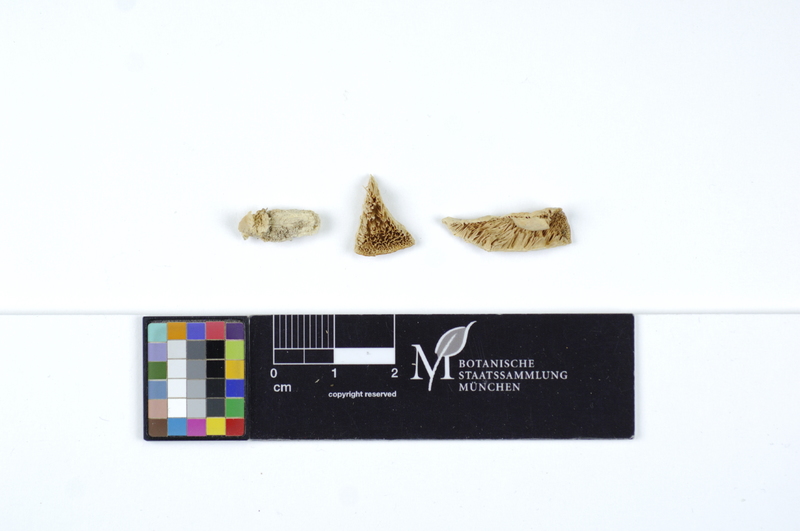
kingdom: Fungi
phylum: Basidiomycota
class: Agaricomycetes
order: Polyporales
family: Cerrenaceae
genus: Cerrena
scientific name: Cerrena zonata
